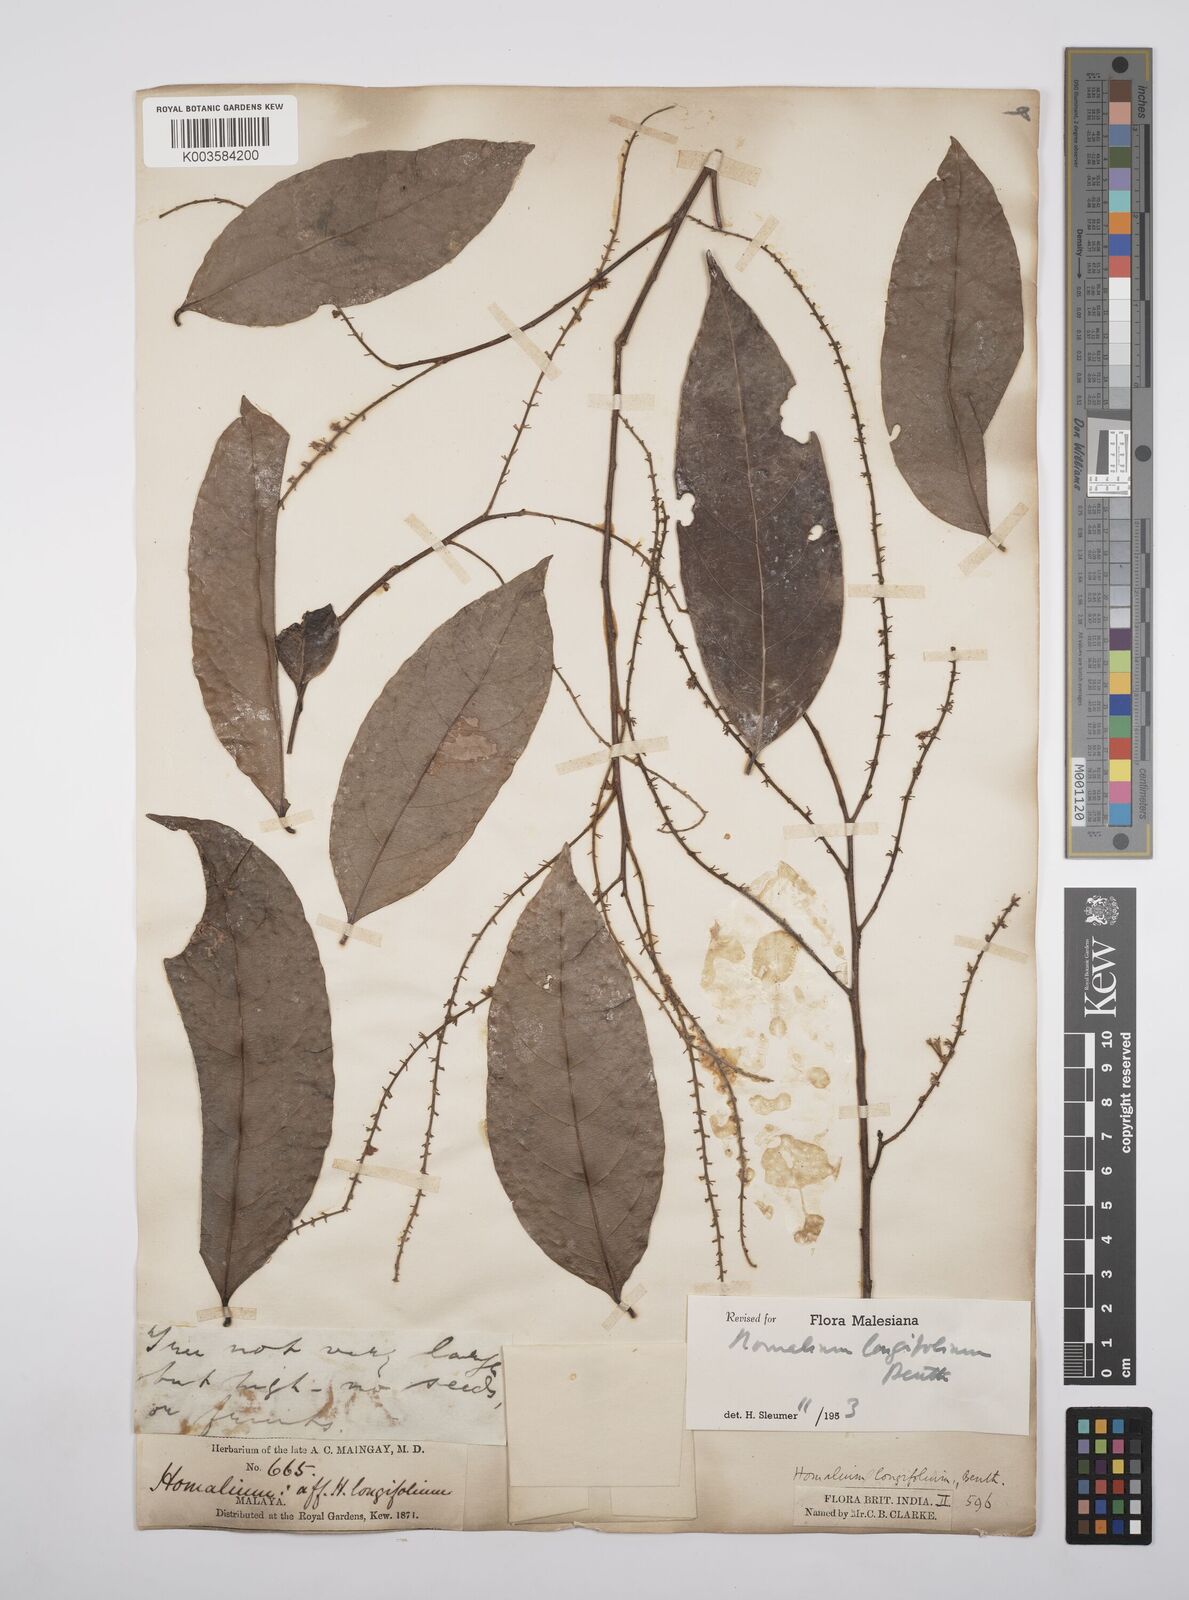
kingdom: Plantae
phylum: Tracheophyta
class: Magnoliopsida
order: Malpighiales
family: Salicaceae
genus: Homalium
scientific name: Homalium longifolium
